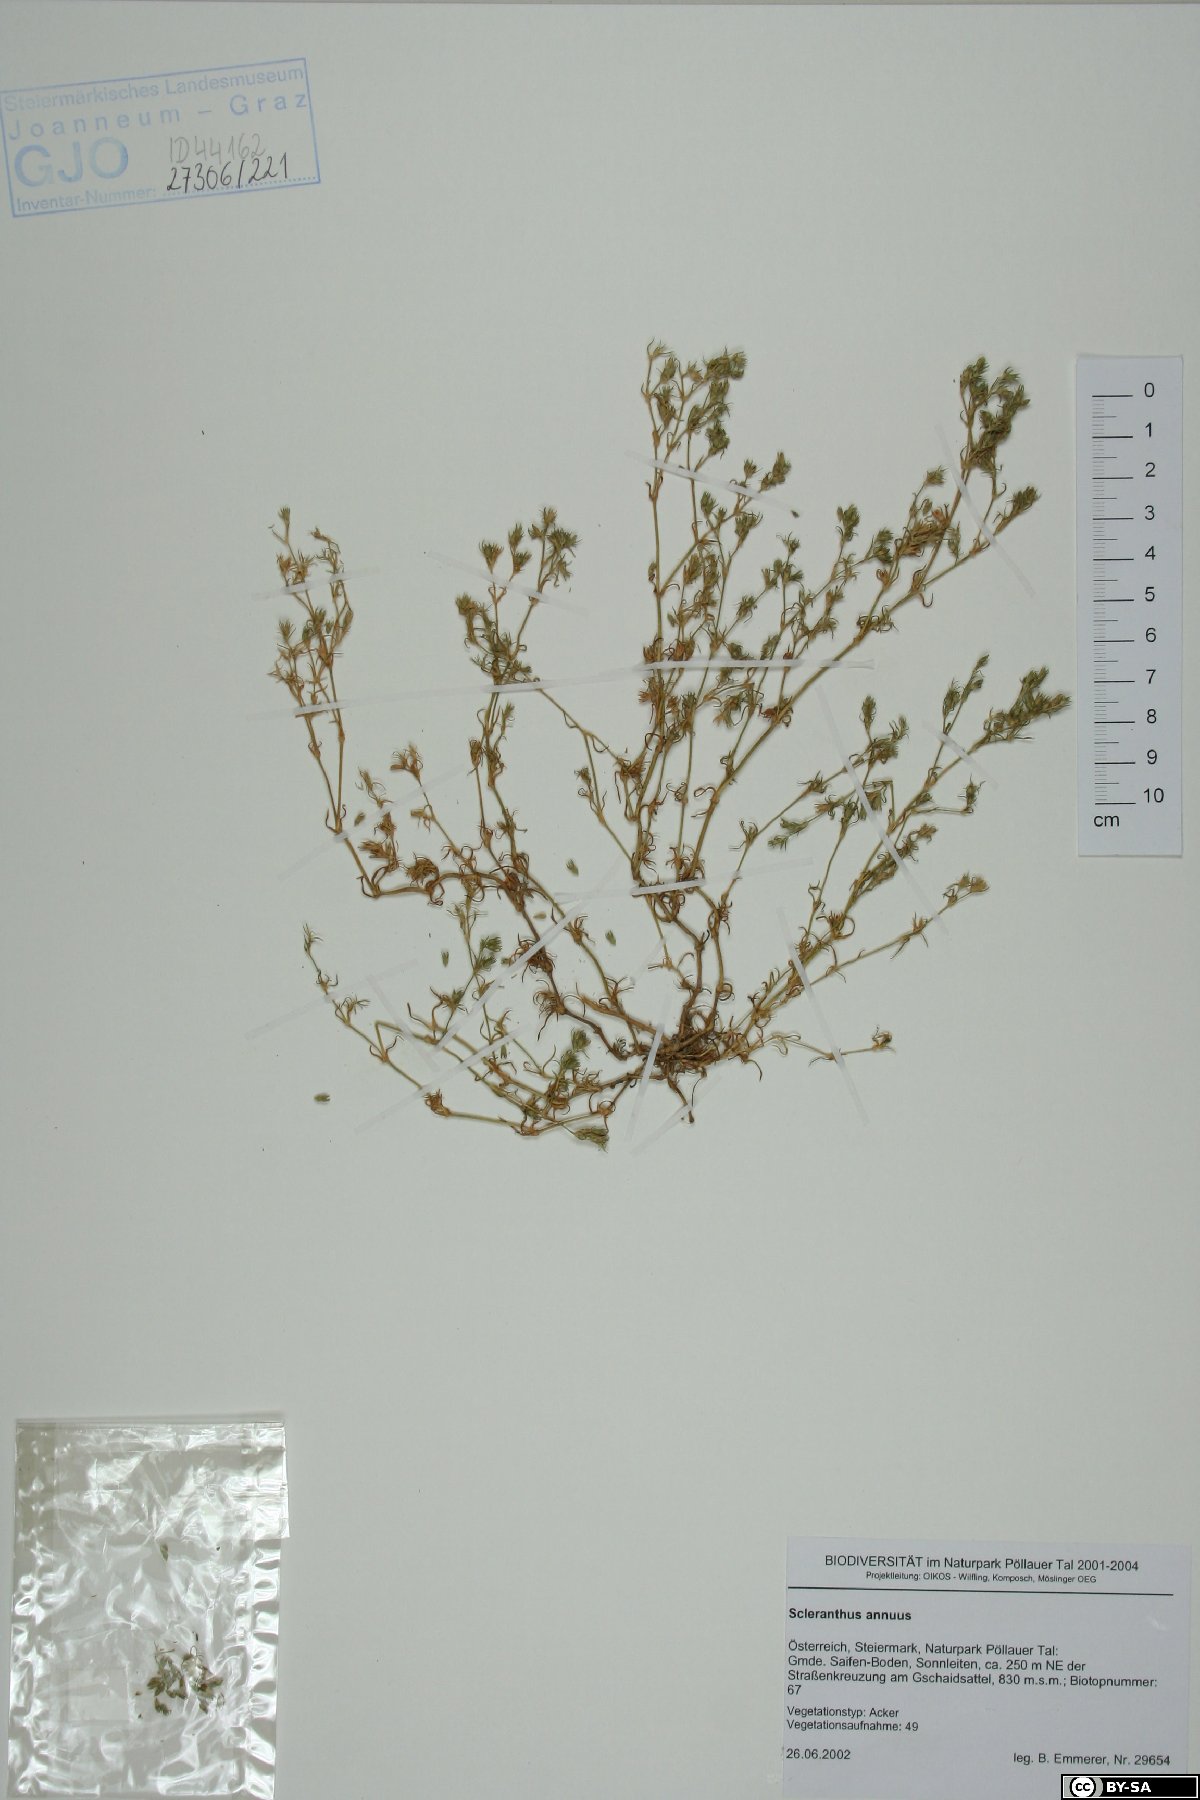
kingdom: Plantae
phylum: Tracheophyta
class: Magnoliopsida
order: Caryophyllales
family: Caryophyllaceae
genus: Scleranthus
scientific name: Scleranthus annuus
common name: Annual knawel
